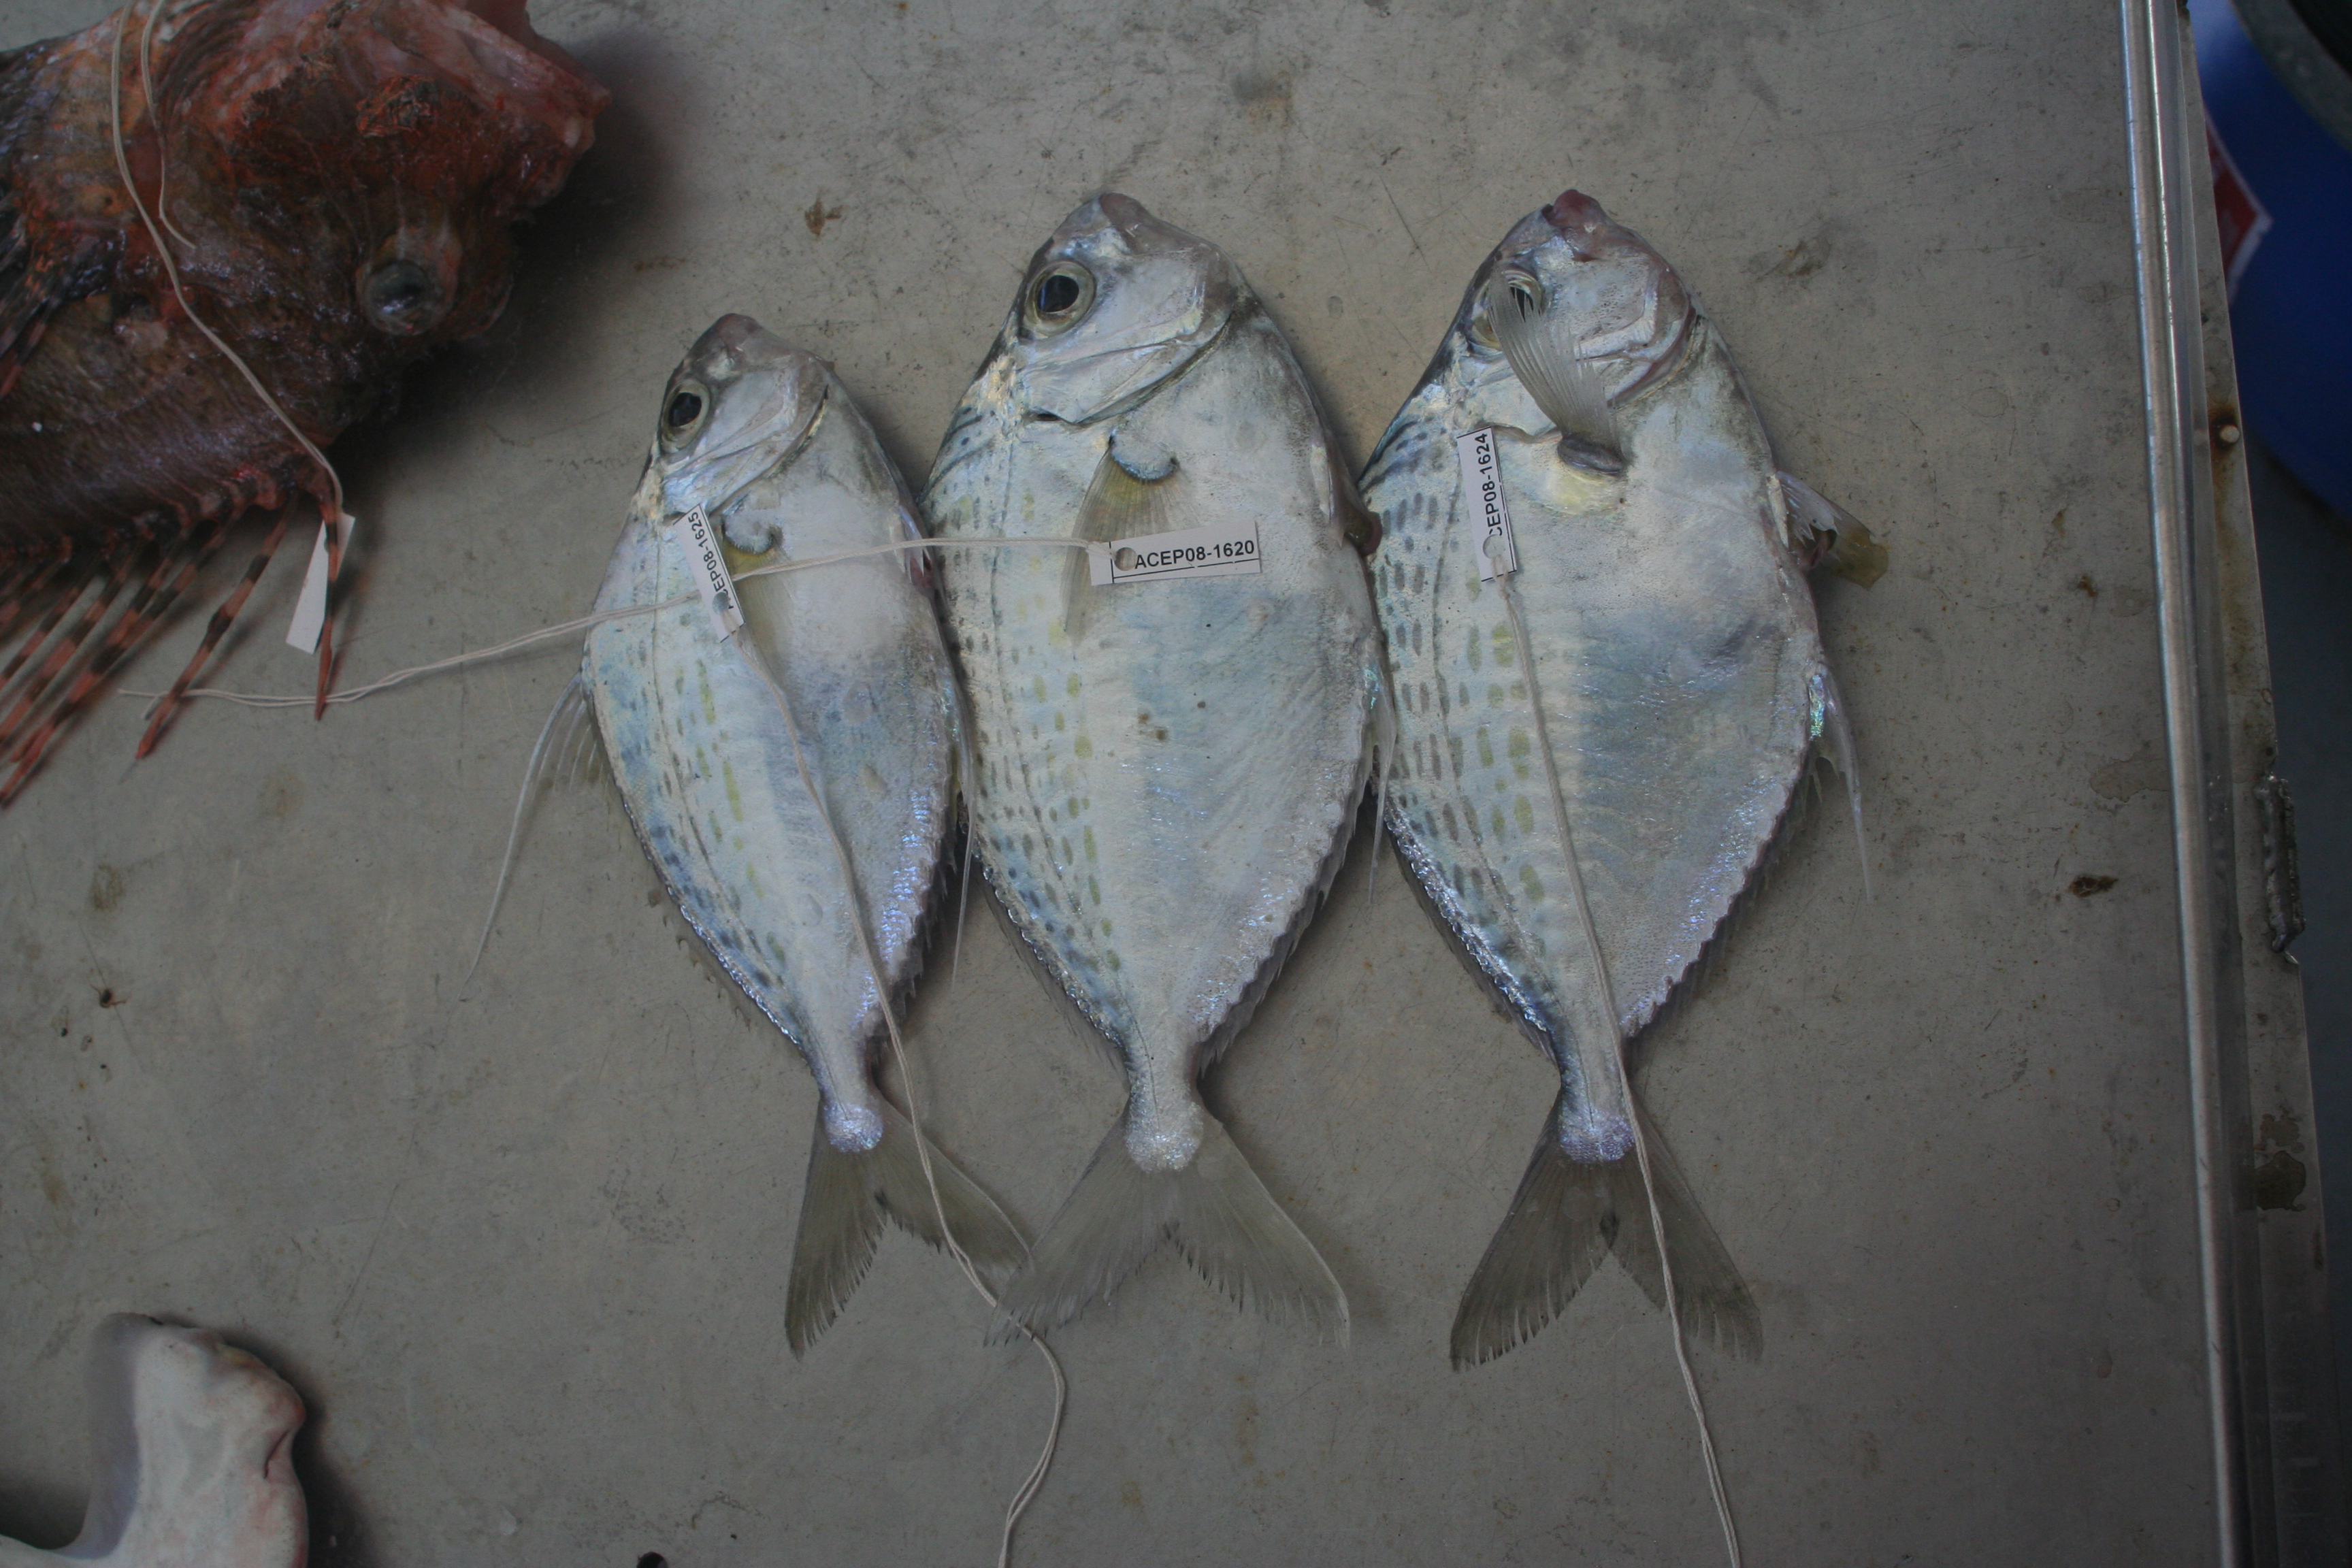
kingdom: Animalia
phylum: Chordata
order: Perciformes
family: Leiognathidae
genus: Aurigequula
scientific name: Aurigequula longispina
